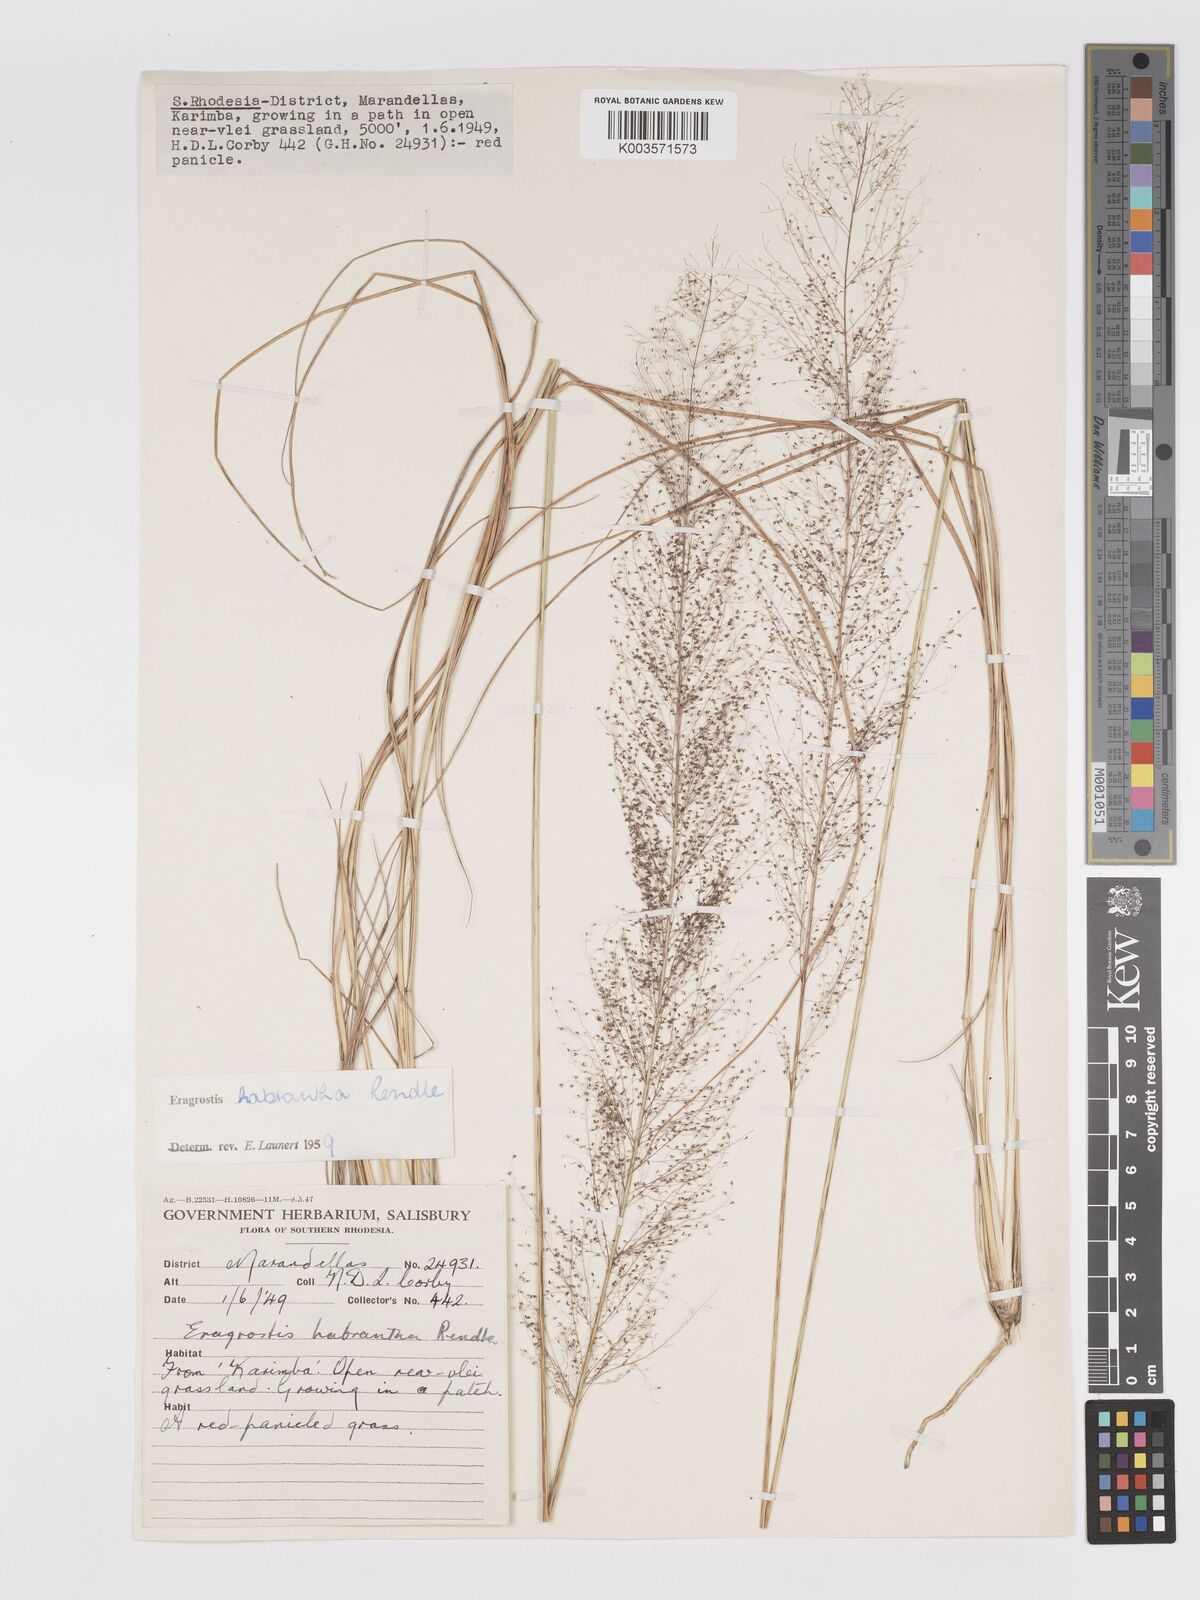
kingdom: Plantae
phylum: Tracheophyta
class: Liliopsida
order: Poales
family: Poaceae
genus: Eragrostis
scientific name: Eragrostis habrantha
